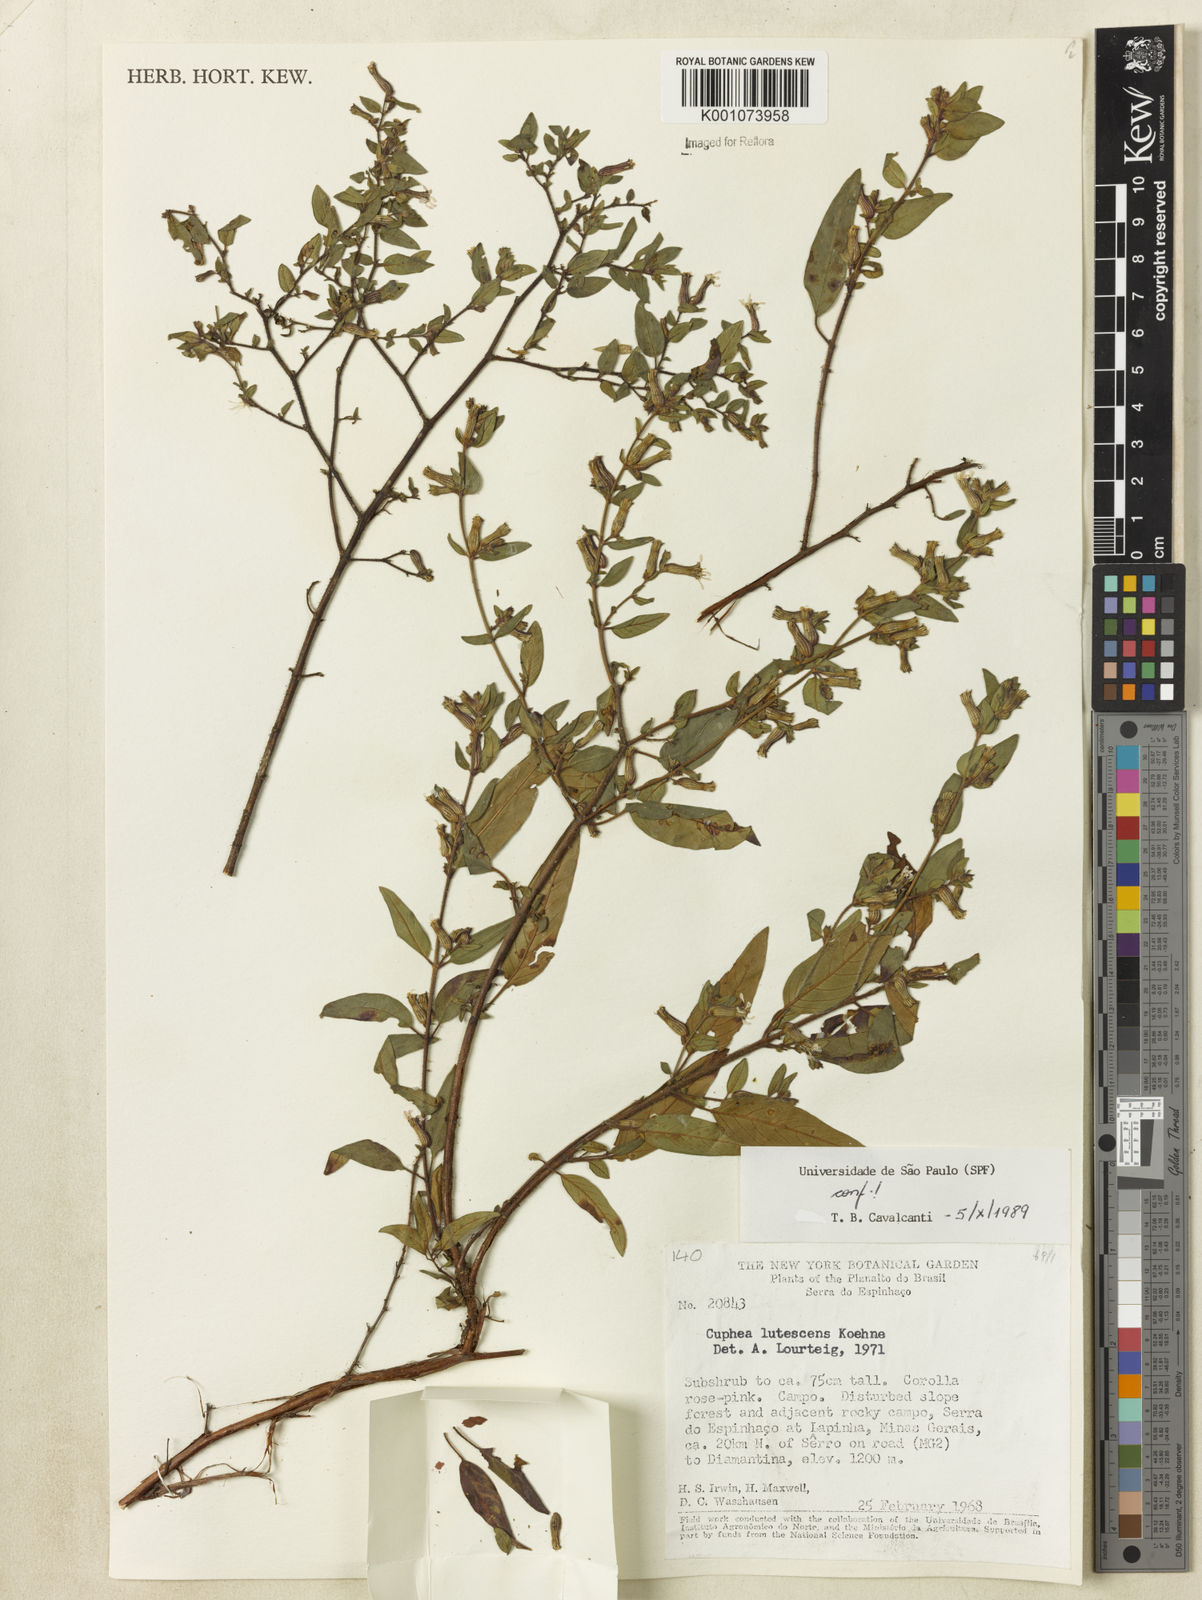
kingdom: Plantae
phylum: Tracheophyta
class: Magnoliopsida
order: Myrtales
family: Lythraceae
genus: Cuphea
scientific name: Cuphea lutescens
